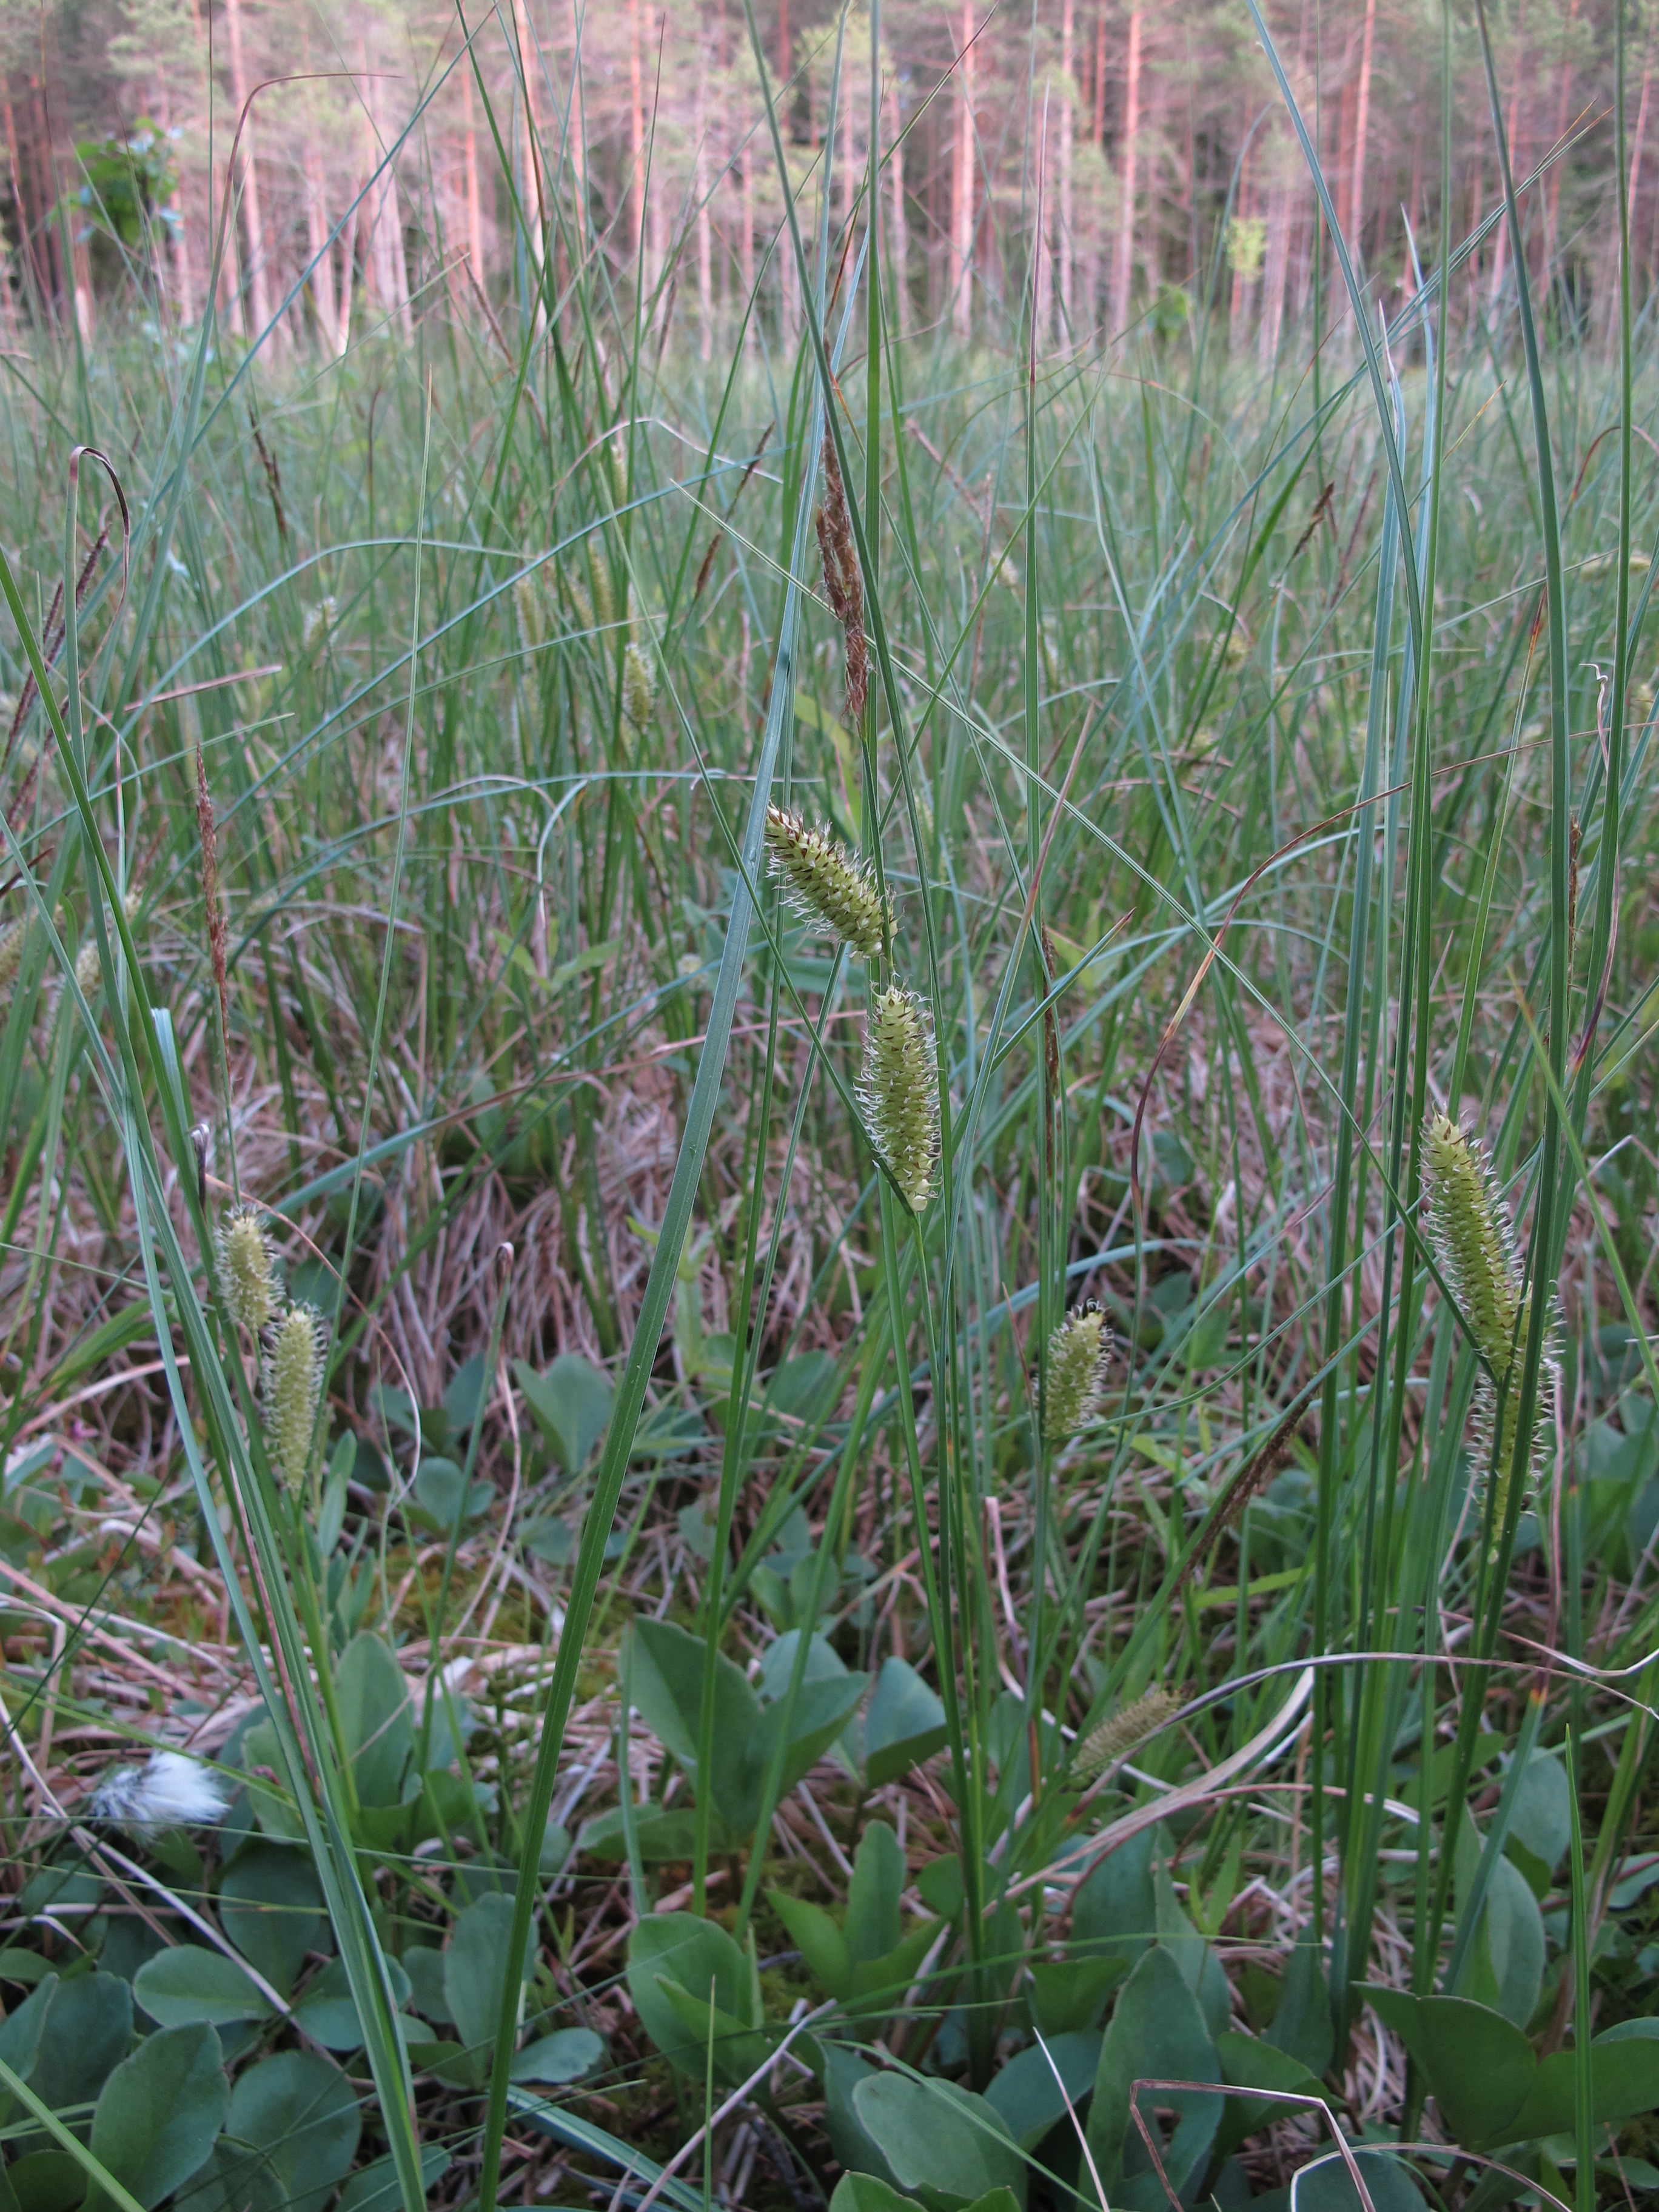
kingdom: Plantae
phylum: Tracheophyta
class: Liliopsida
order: Poales
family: Cyperaceae
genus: Carex
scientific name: Carex rostrata
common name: Bottle sedge
